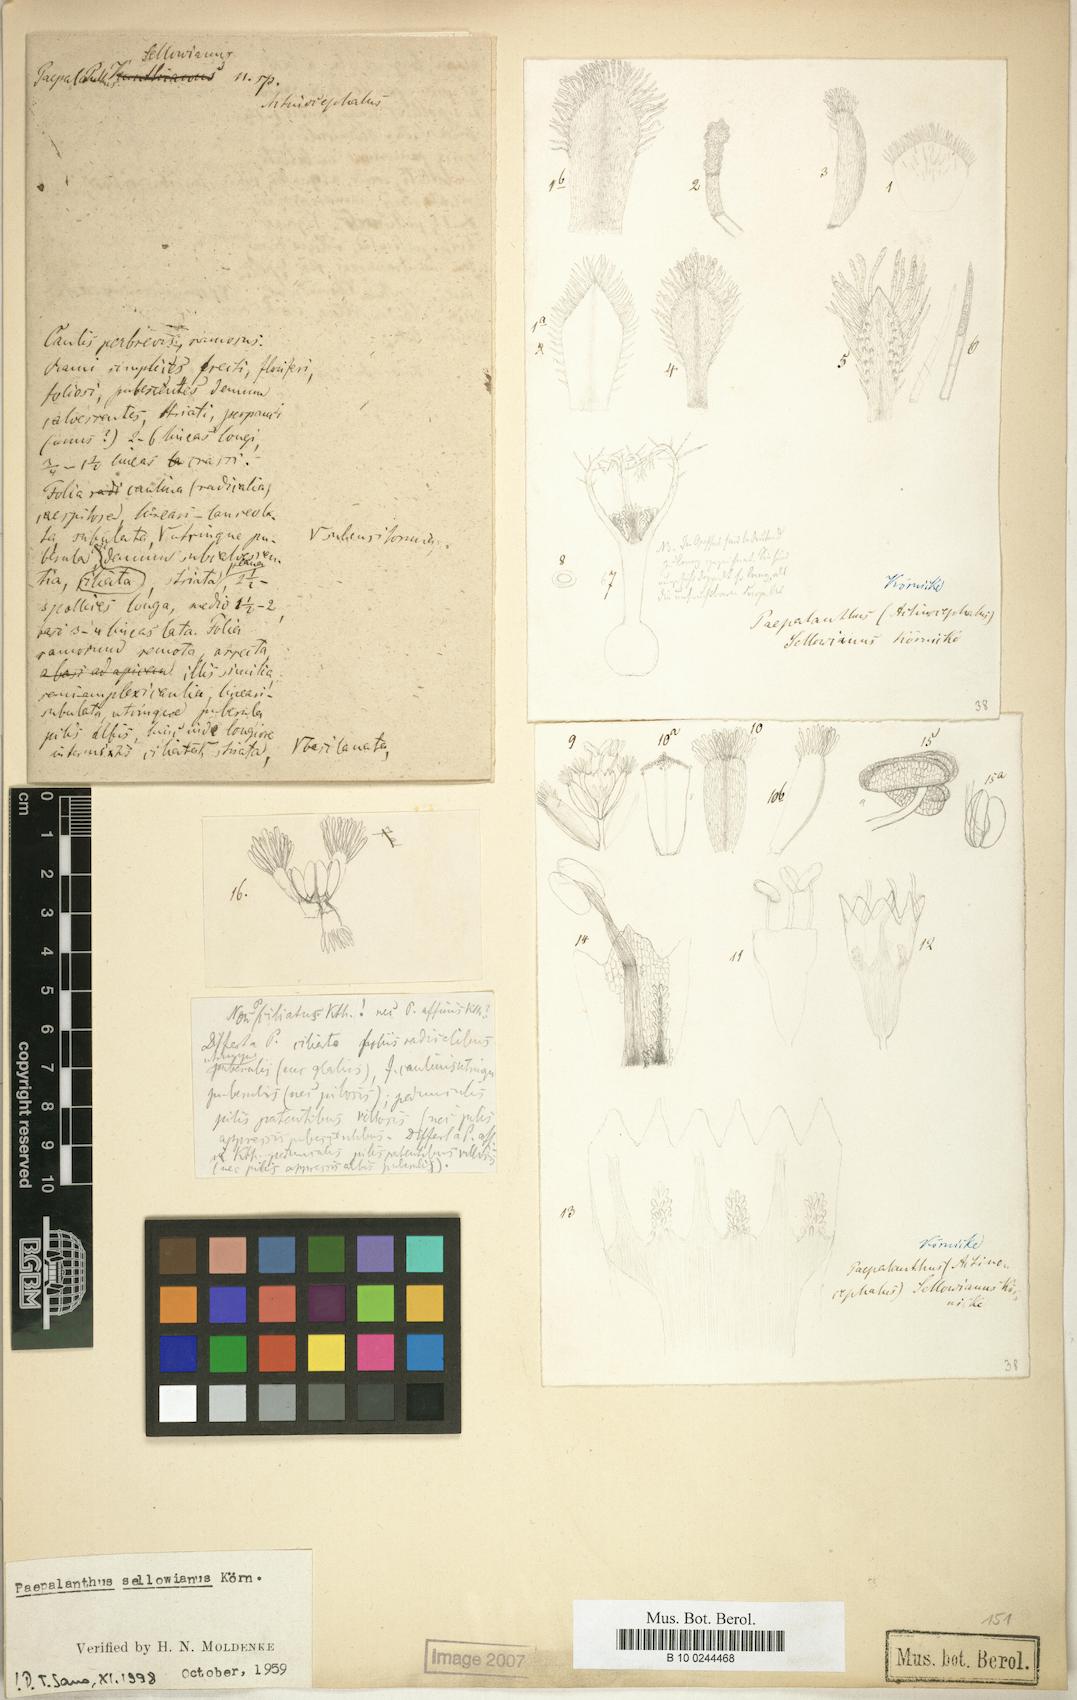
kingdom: Plantae
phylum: Tracheophyta
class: Liliopsida
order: Poales
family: Eriocaulaceae
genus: Paepalanthus
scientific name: Paepalanthus polyanthus
